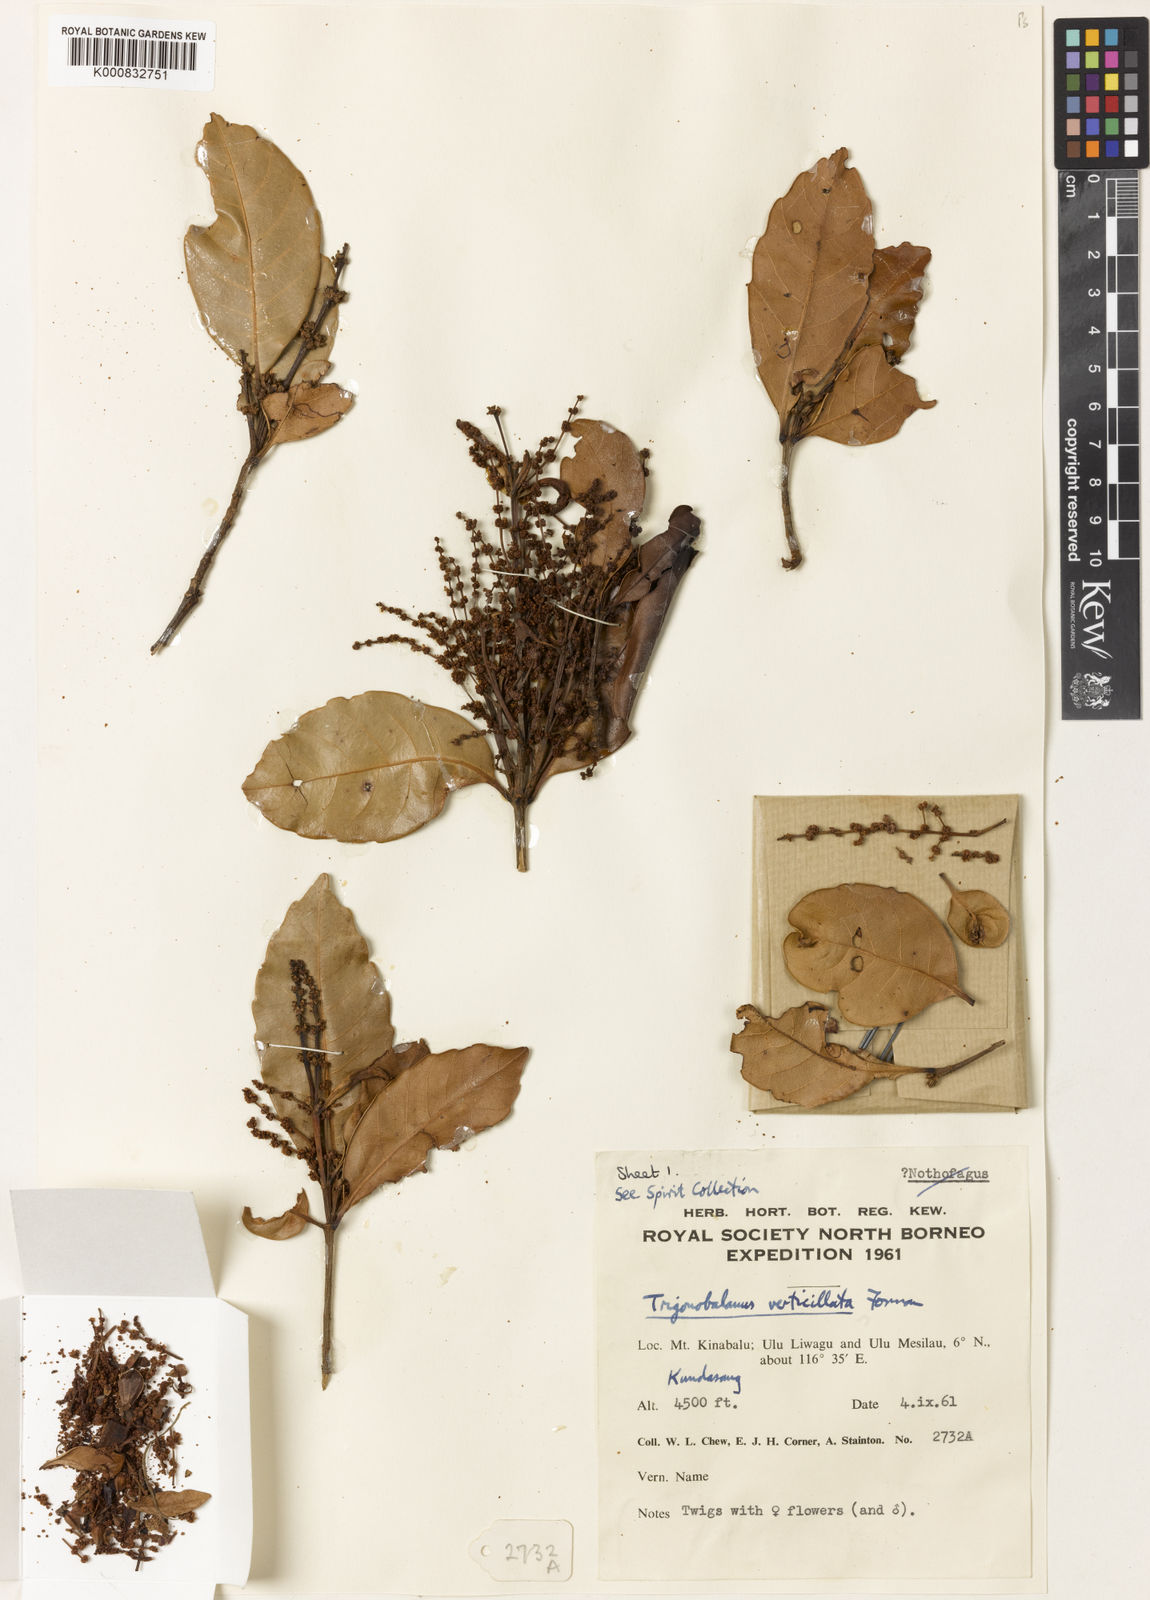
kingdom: Plantae
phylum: Tracheophyta
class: Magnoliopsida
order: Fagales
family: Fagaceae
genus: Trigonobalanus
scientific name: Trigonobalanus verticillata
